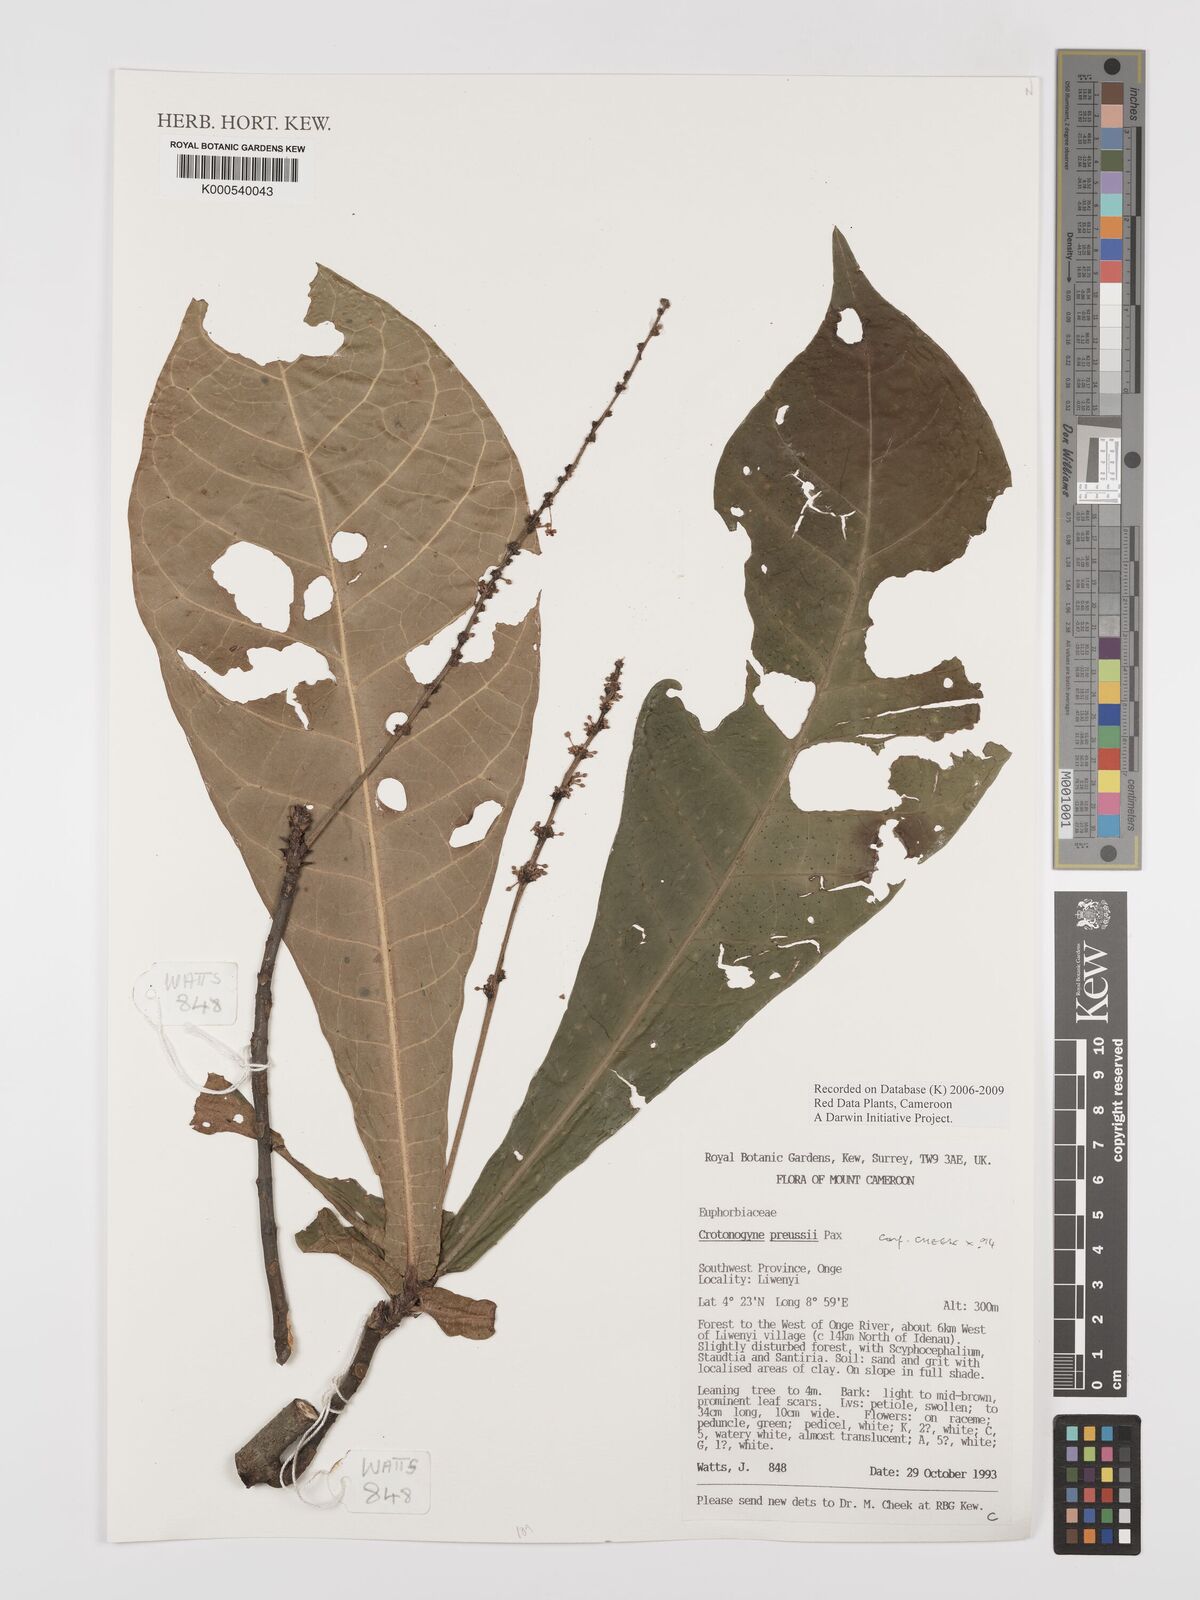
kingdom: Plantae
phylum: Tracheophyta
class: Magnoliopsida
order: Malpighiales
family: Euphorbiaceae
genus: Crotonogyne
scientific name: Crotonogyne preussii
